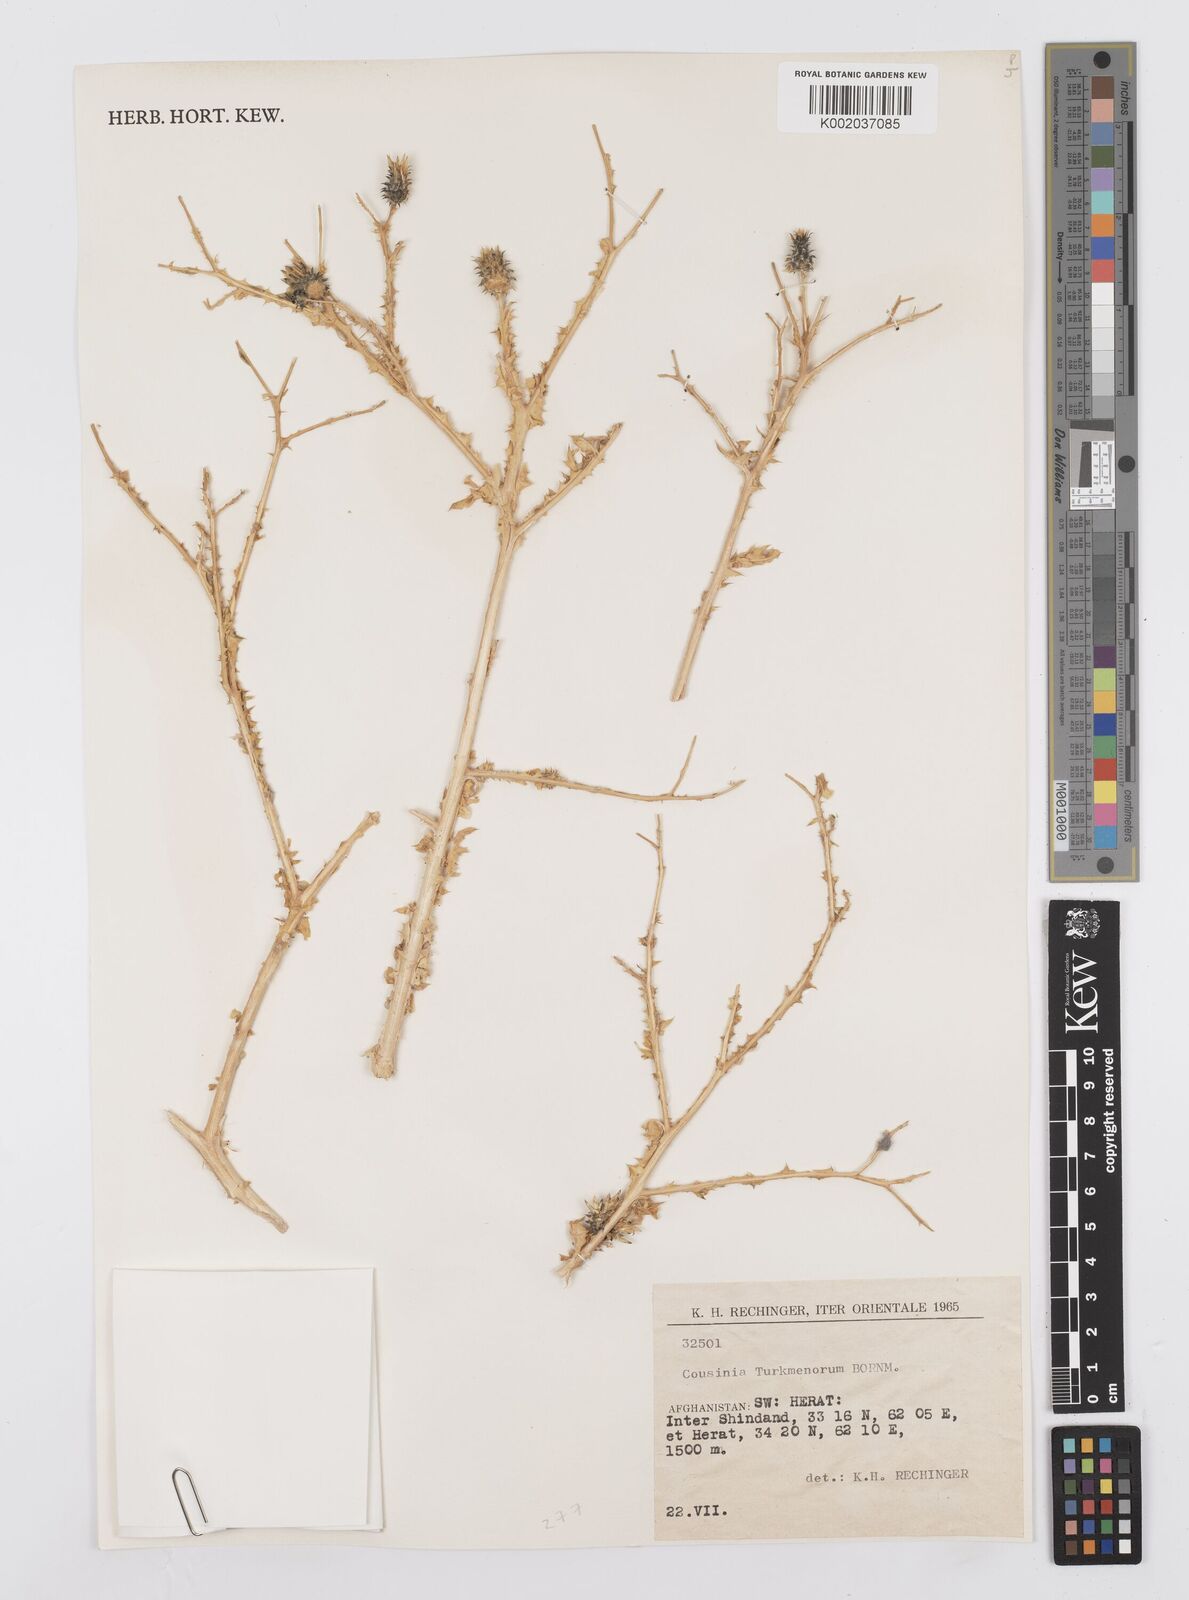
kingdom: Plantae
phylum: Tracheophyta
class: Magnoliopsida
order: Asterales
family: Asteraceae
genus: Cousinia
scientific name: Cousinia turkmenorum
